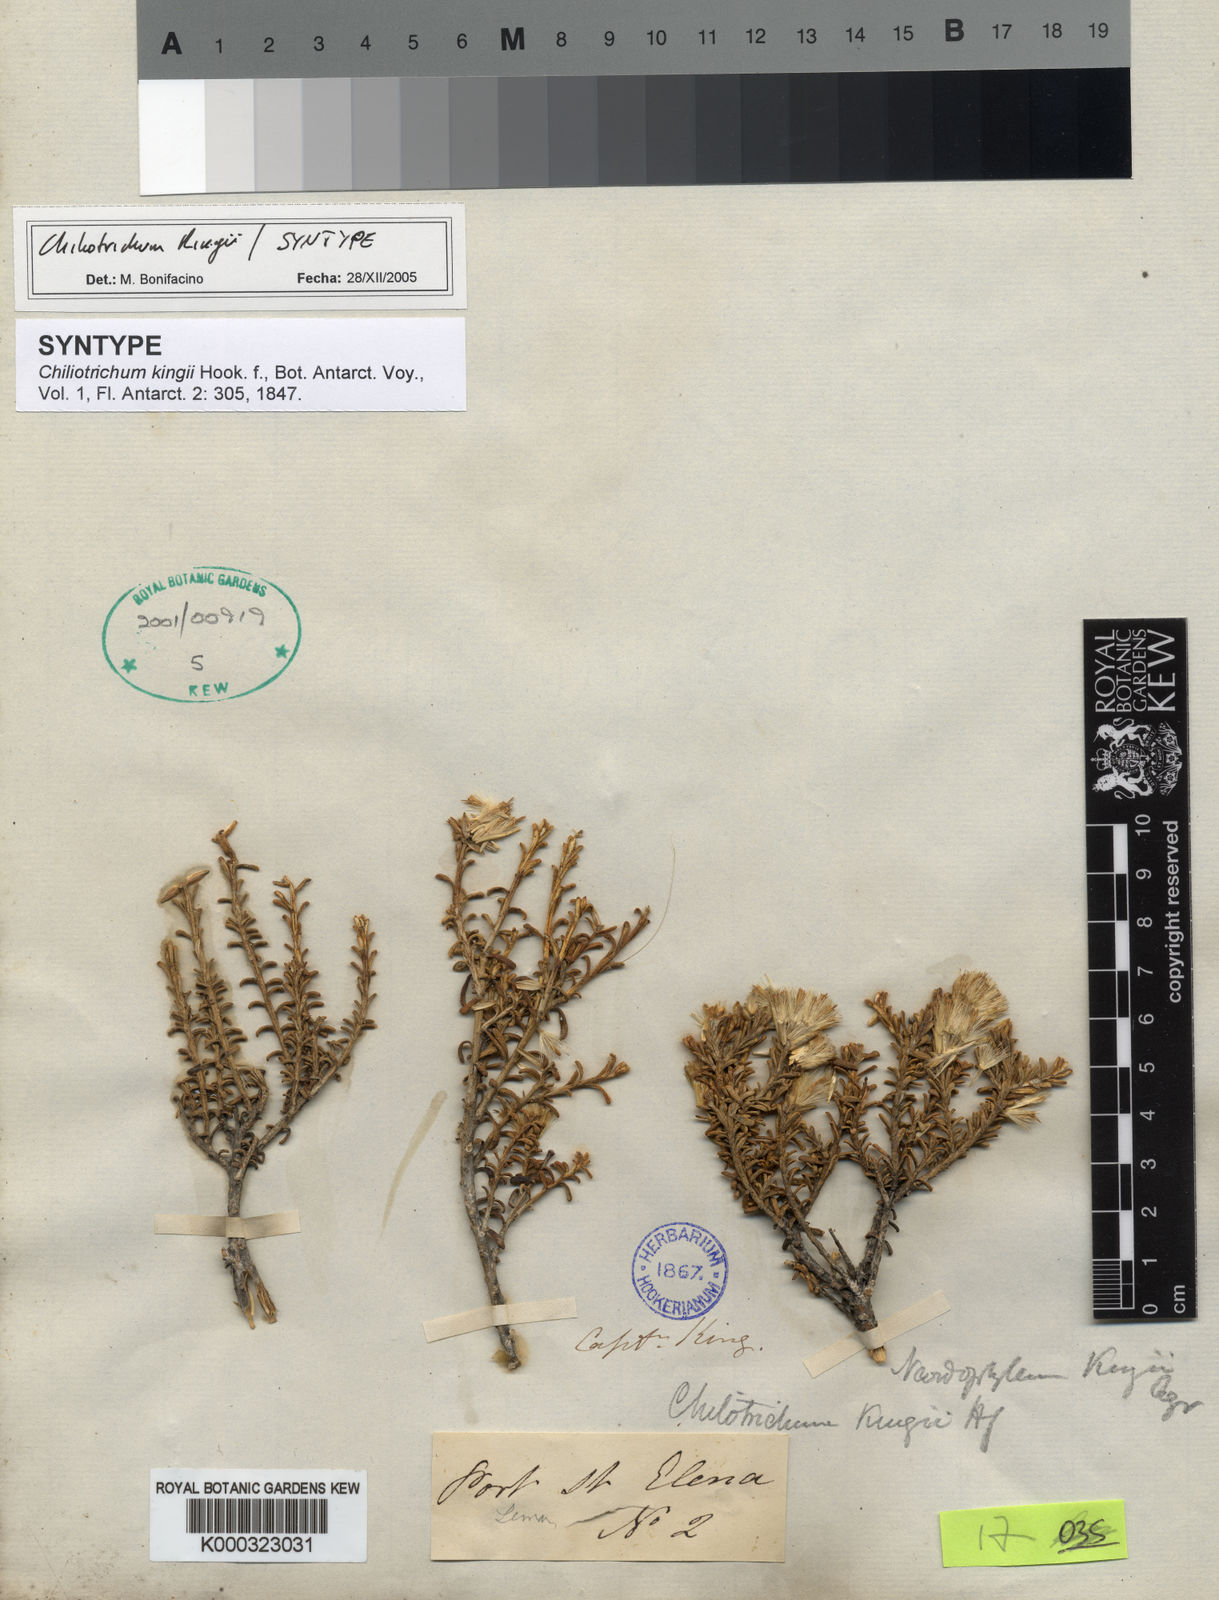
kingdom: Plantae
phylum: Tracheophyta
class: Magnoliopsida
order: Asterales
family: Asteraceae
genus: Nardophyllum
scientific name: Nardophyllum bryoides
